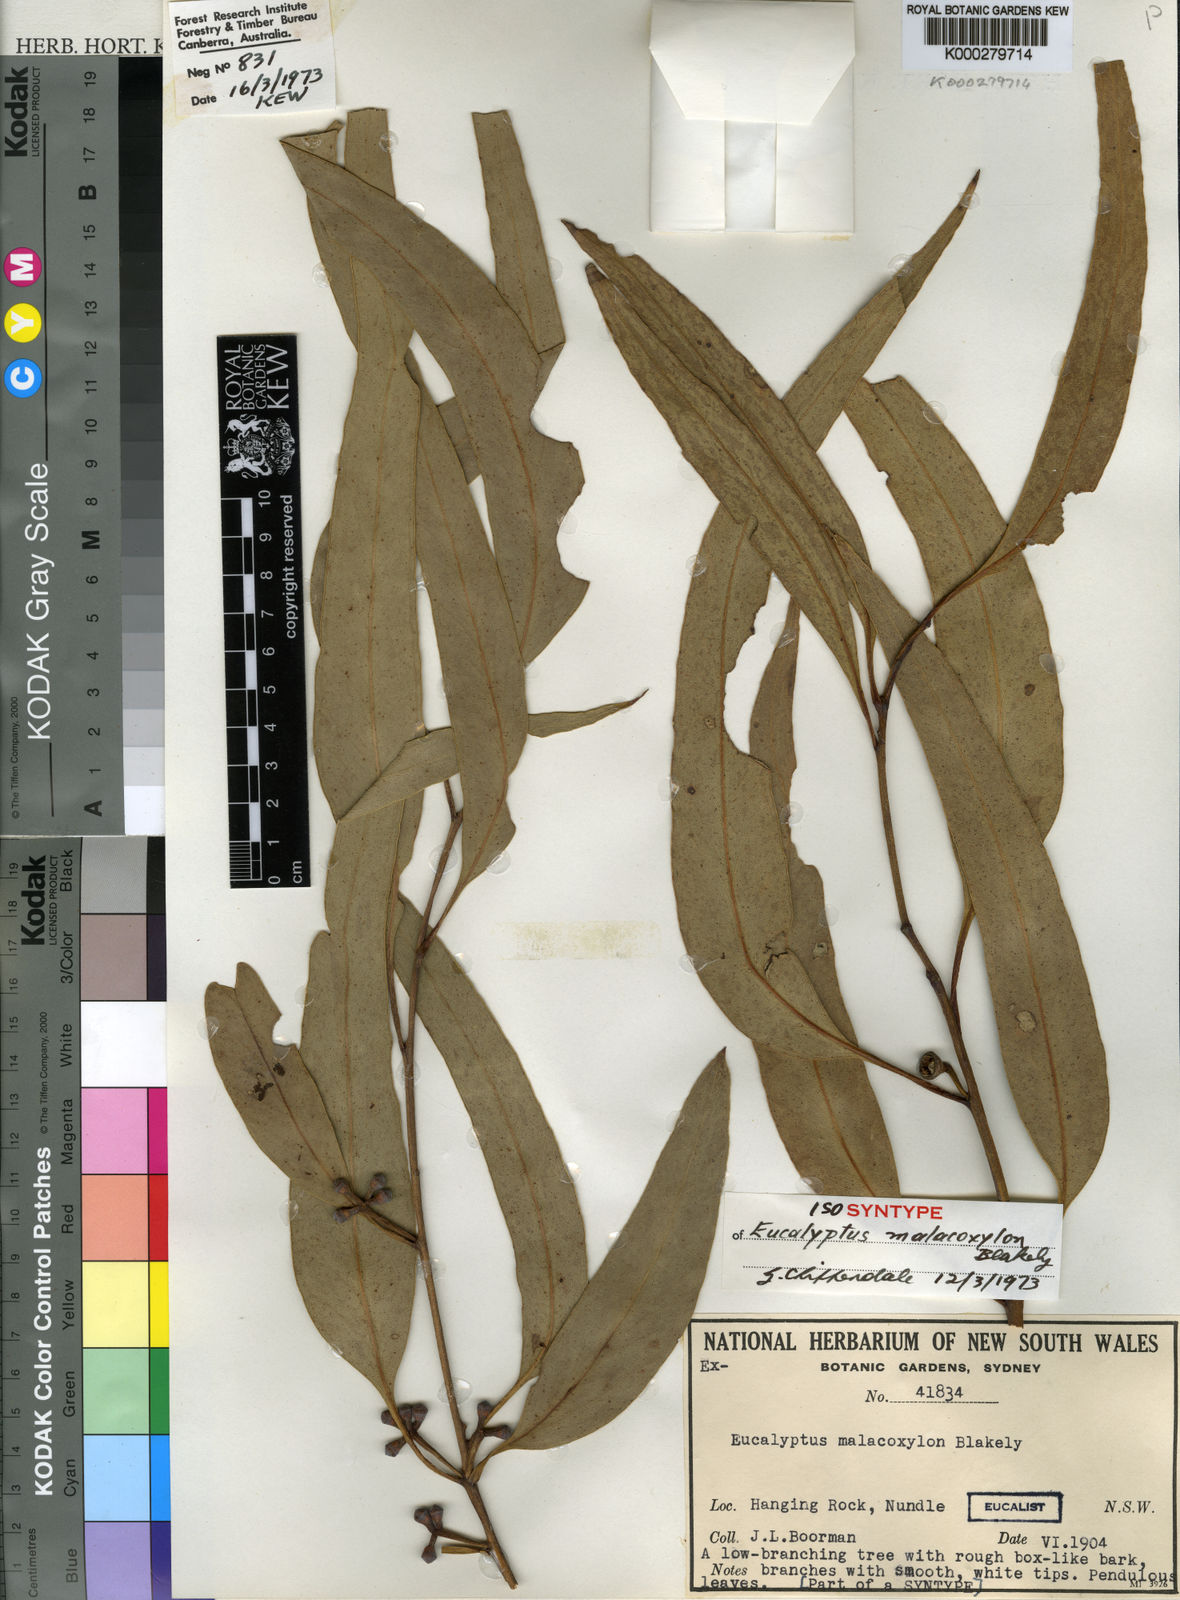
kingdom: Plantae
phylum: Tracheophyta
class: Magnoliopsida
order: Myrtales
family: Myrtaceae
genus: Eucalyptus
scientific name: Eucalyptus malacoxylon
